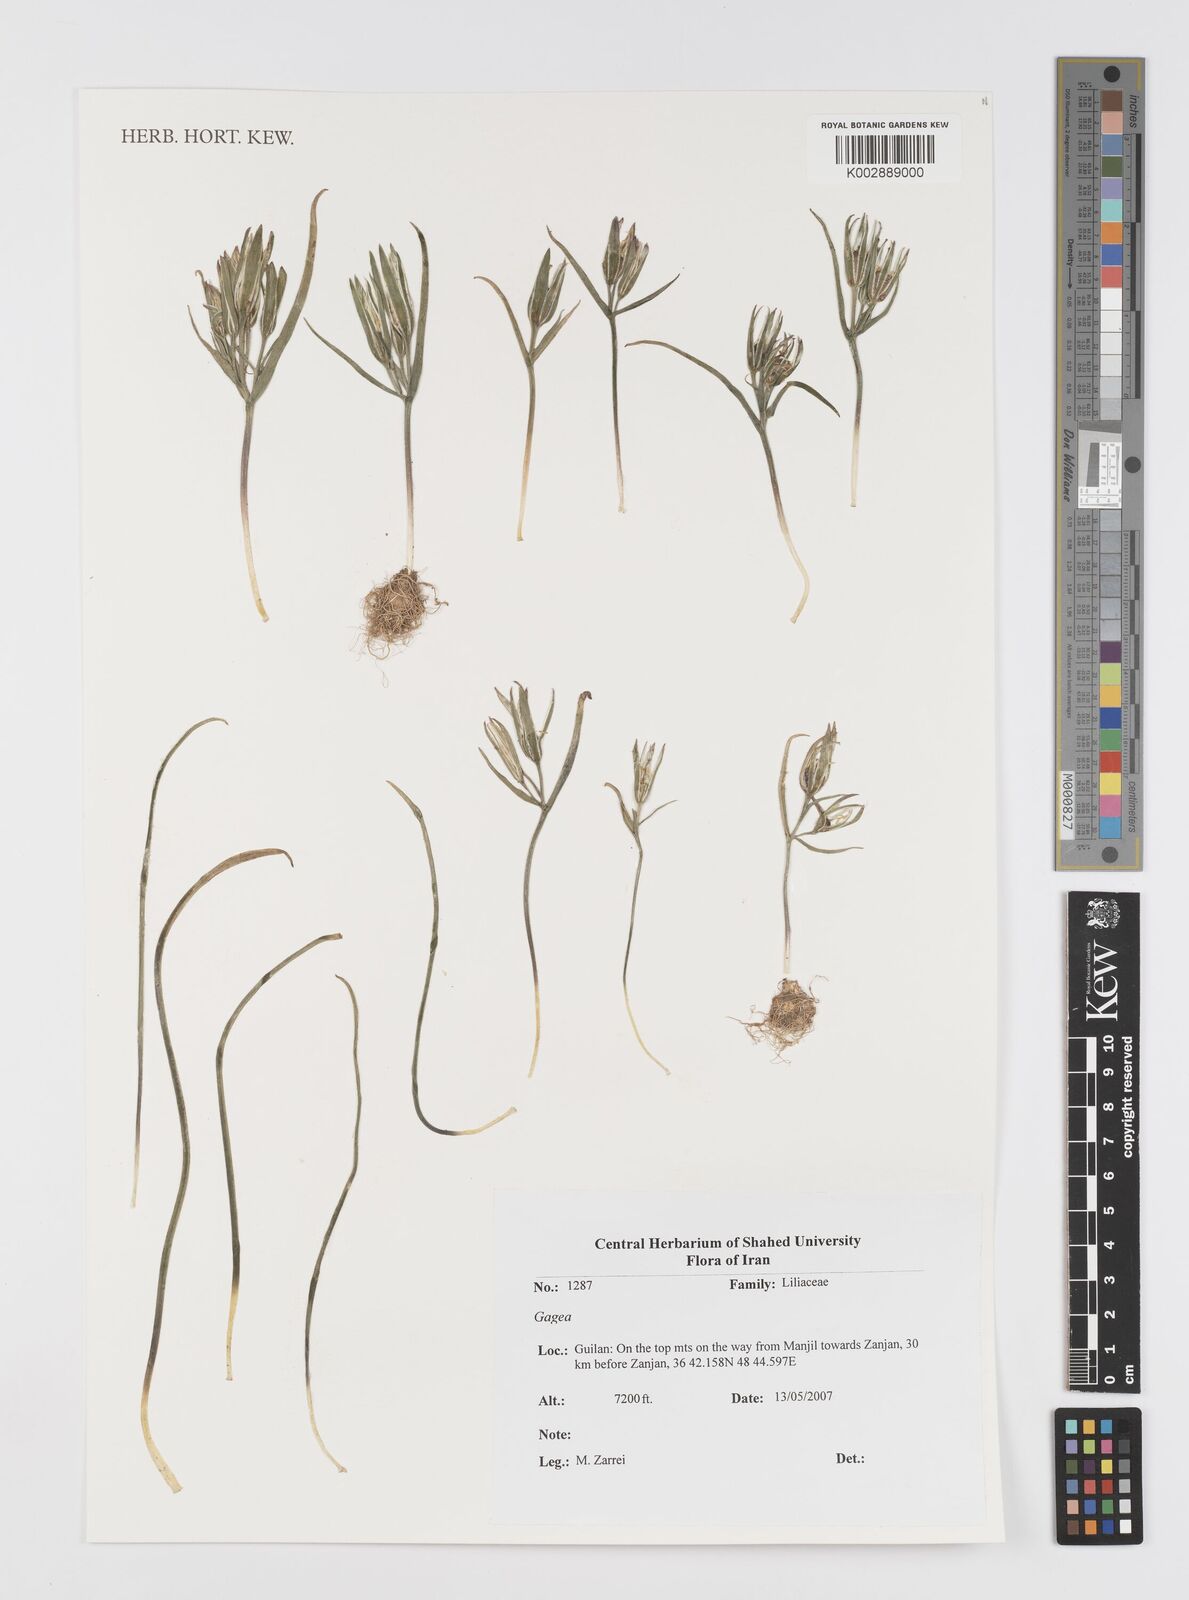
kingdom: Plantae
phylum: Tracheophyta
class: Liliopsida
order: Liliales
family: Liliaceae
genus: Gagea
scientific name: Gagea
